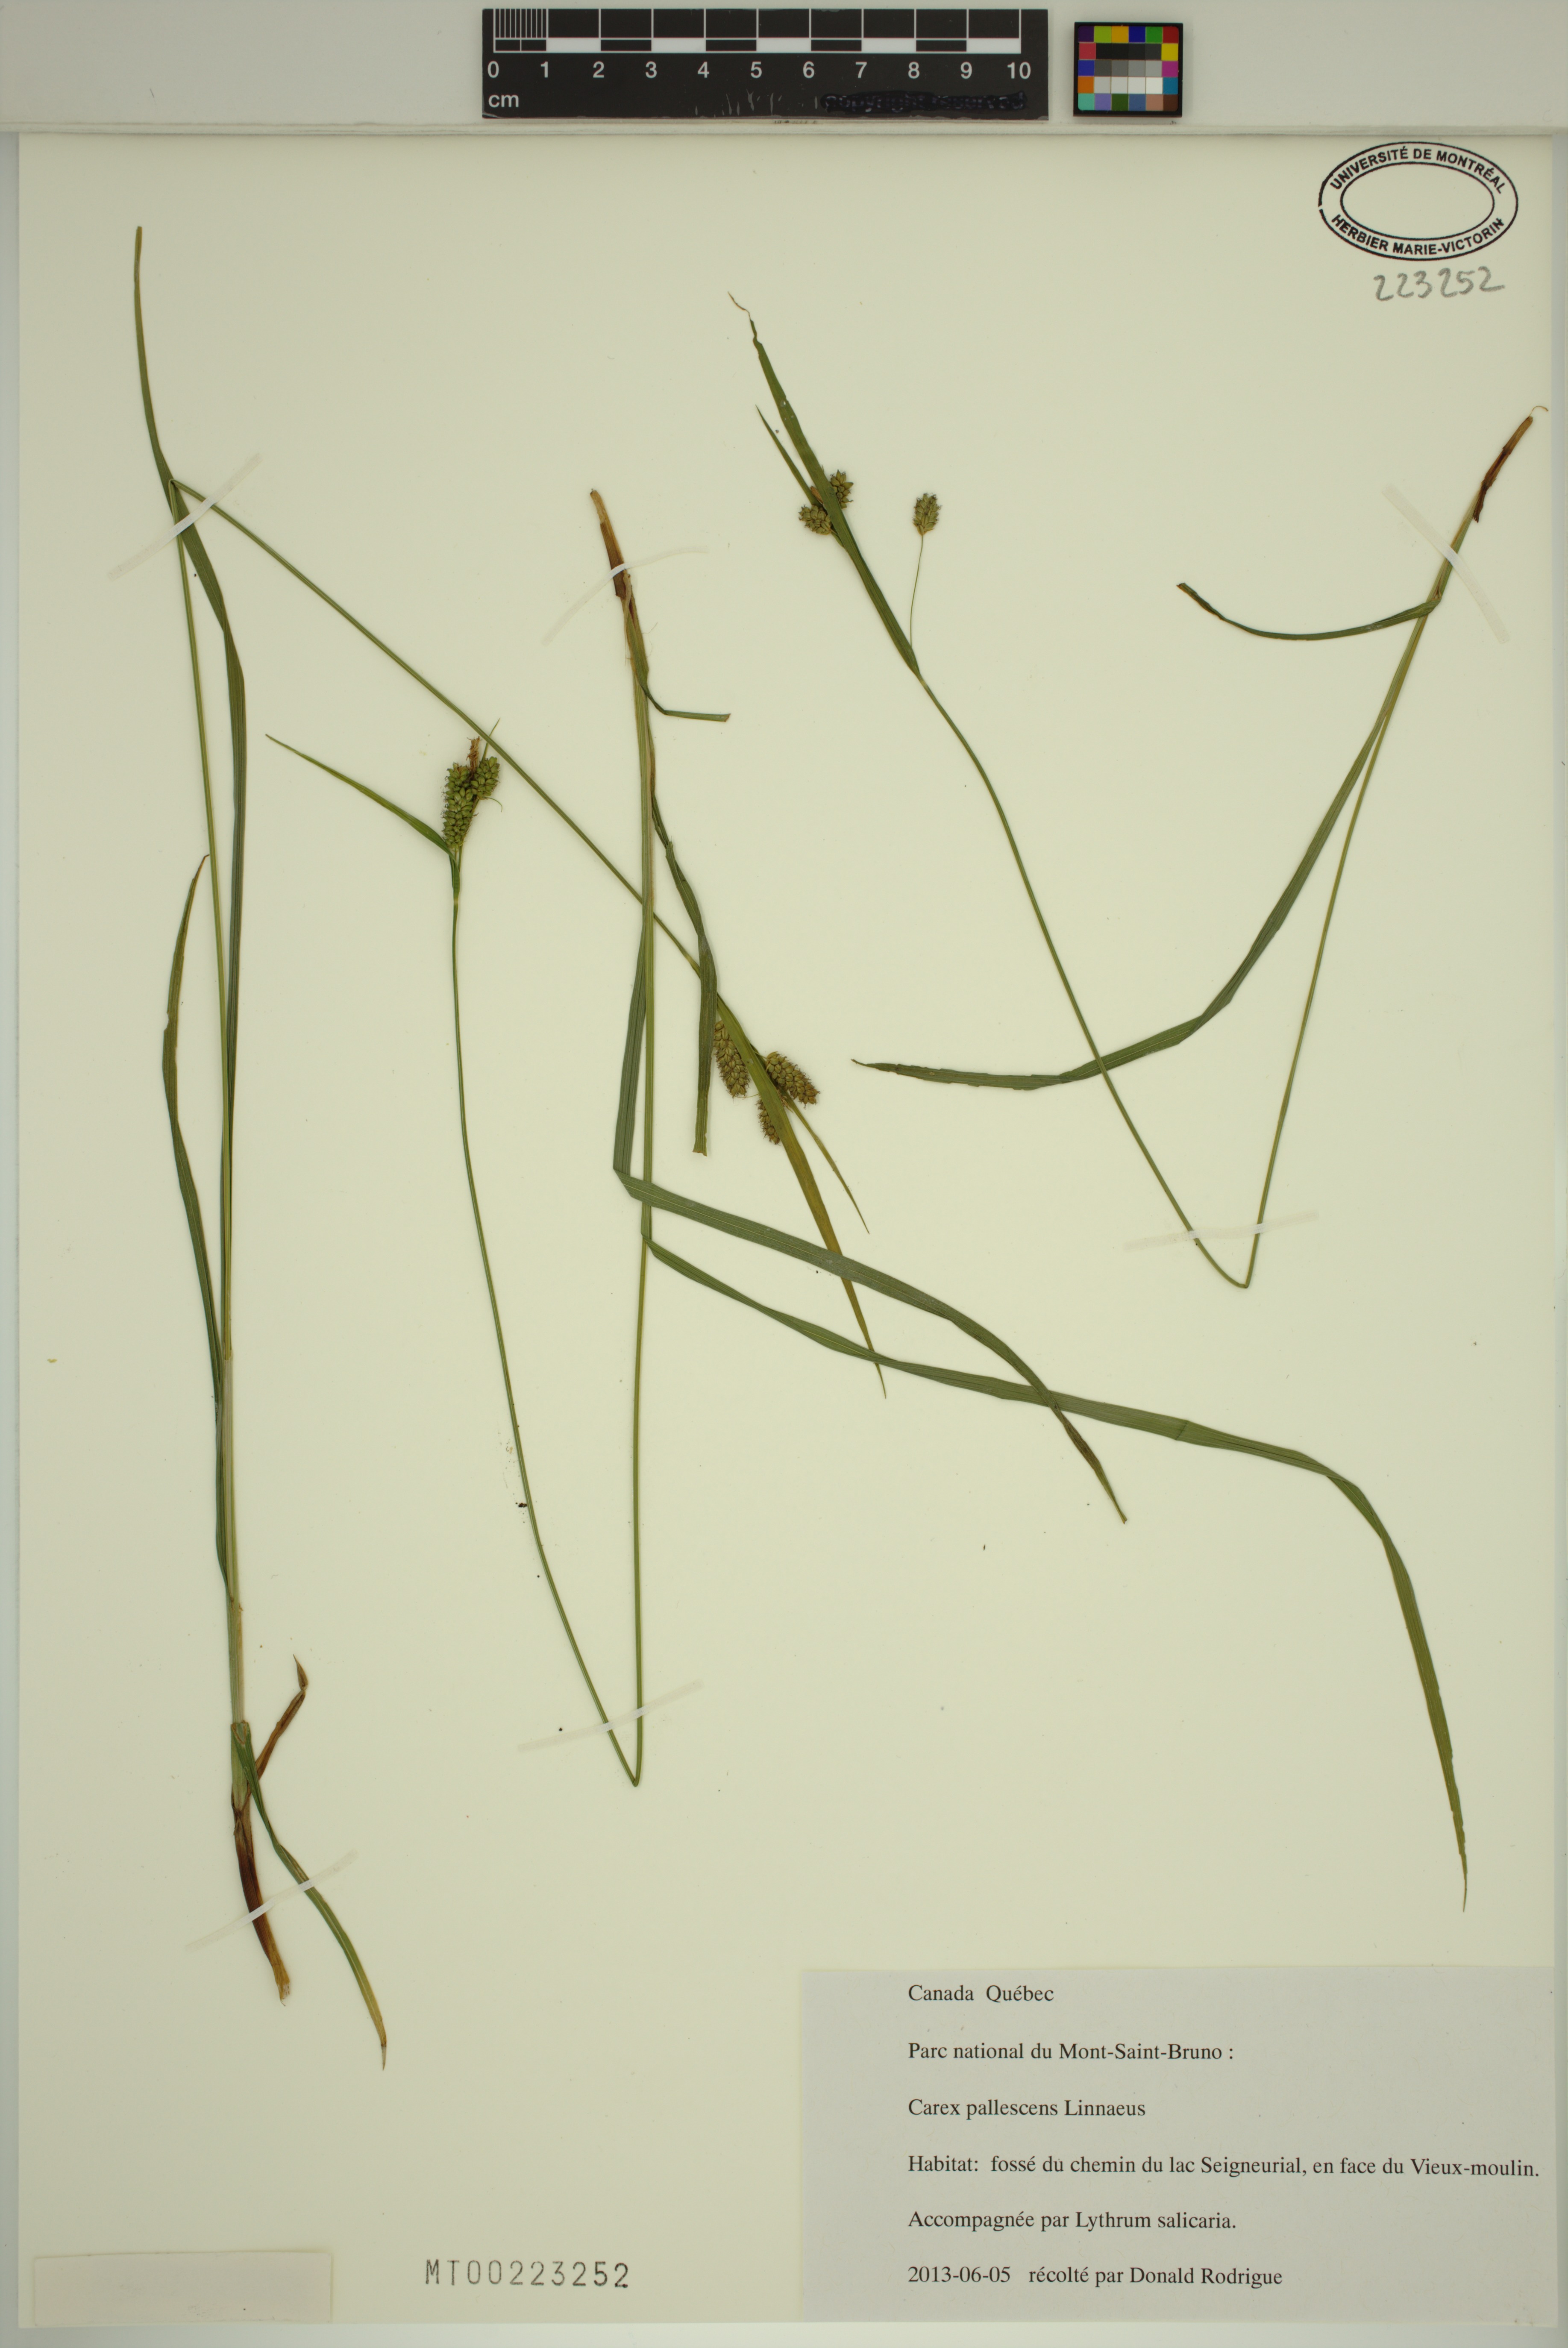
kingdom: Plantae
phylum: Tracheophyta
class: Liliopsida
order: Poales
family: Cyperaceae
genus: Carex
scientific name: Carex pallescens
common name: Pale sedge
